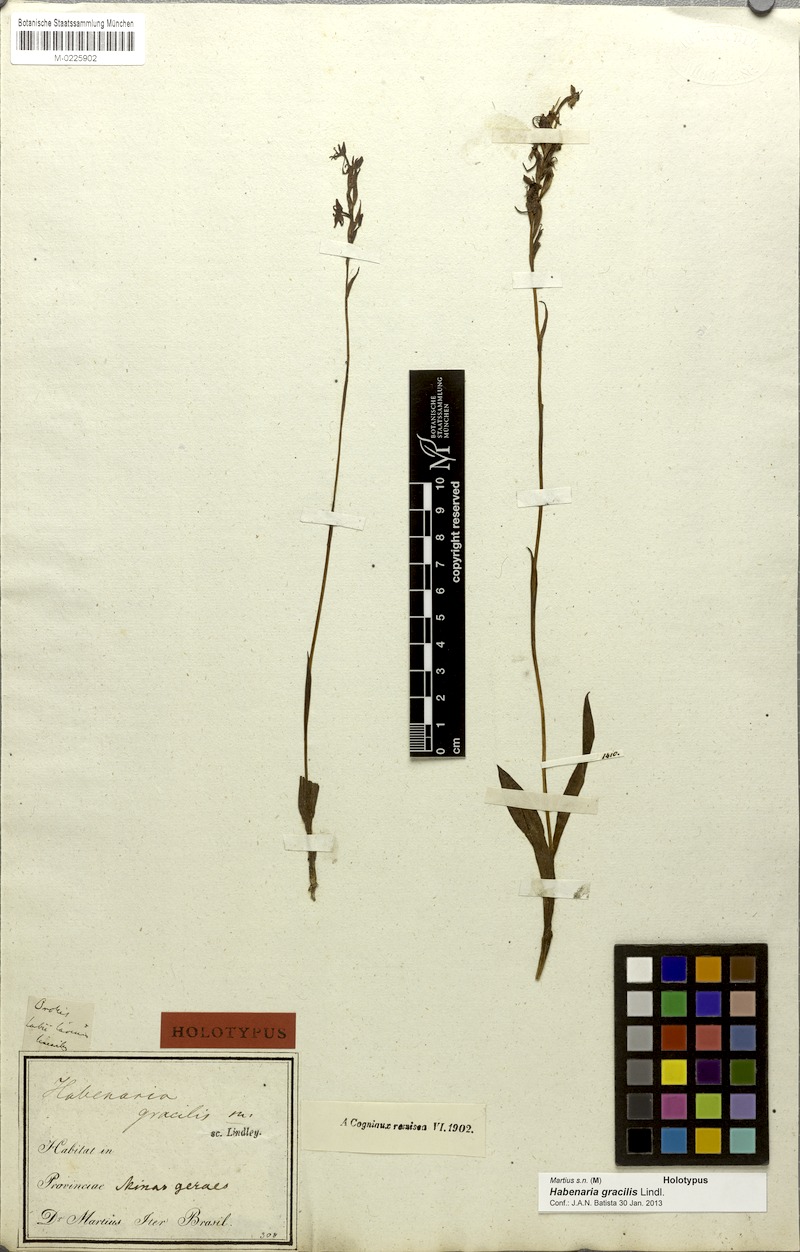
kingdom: Plantae
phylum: Tracheophyta
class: Liliopsida
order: Asparagales
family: Orchidaceae
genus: Habenaria
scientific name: Habenaria gracilis
